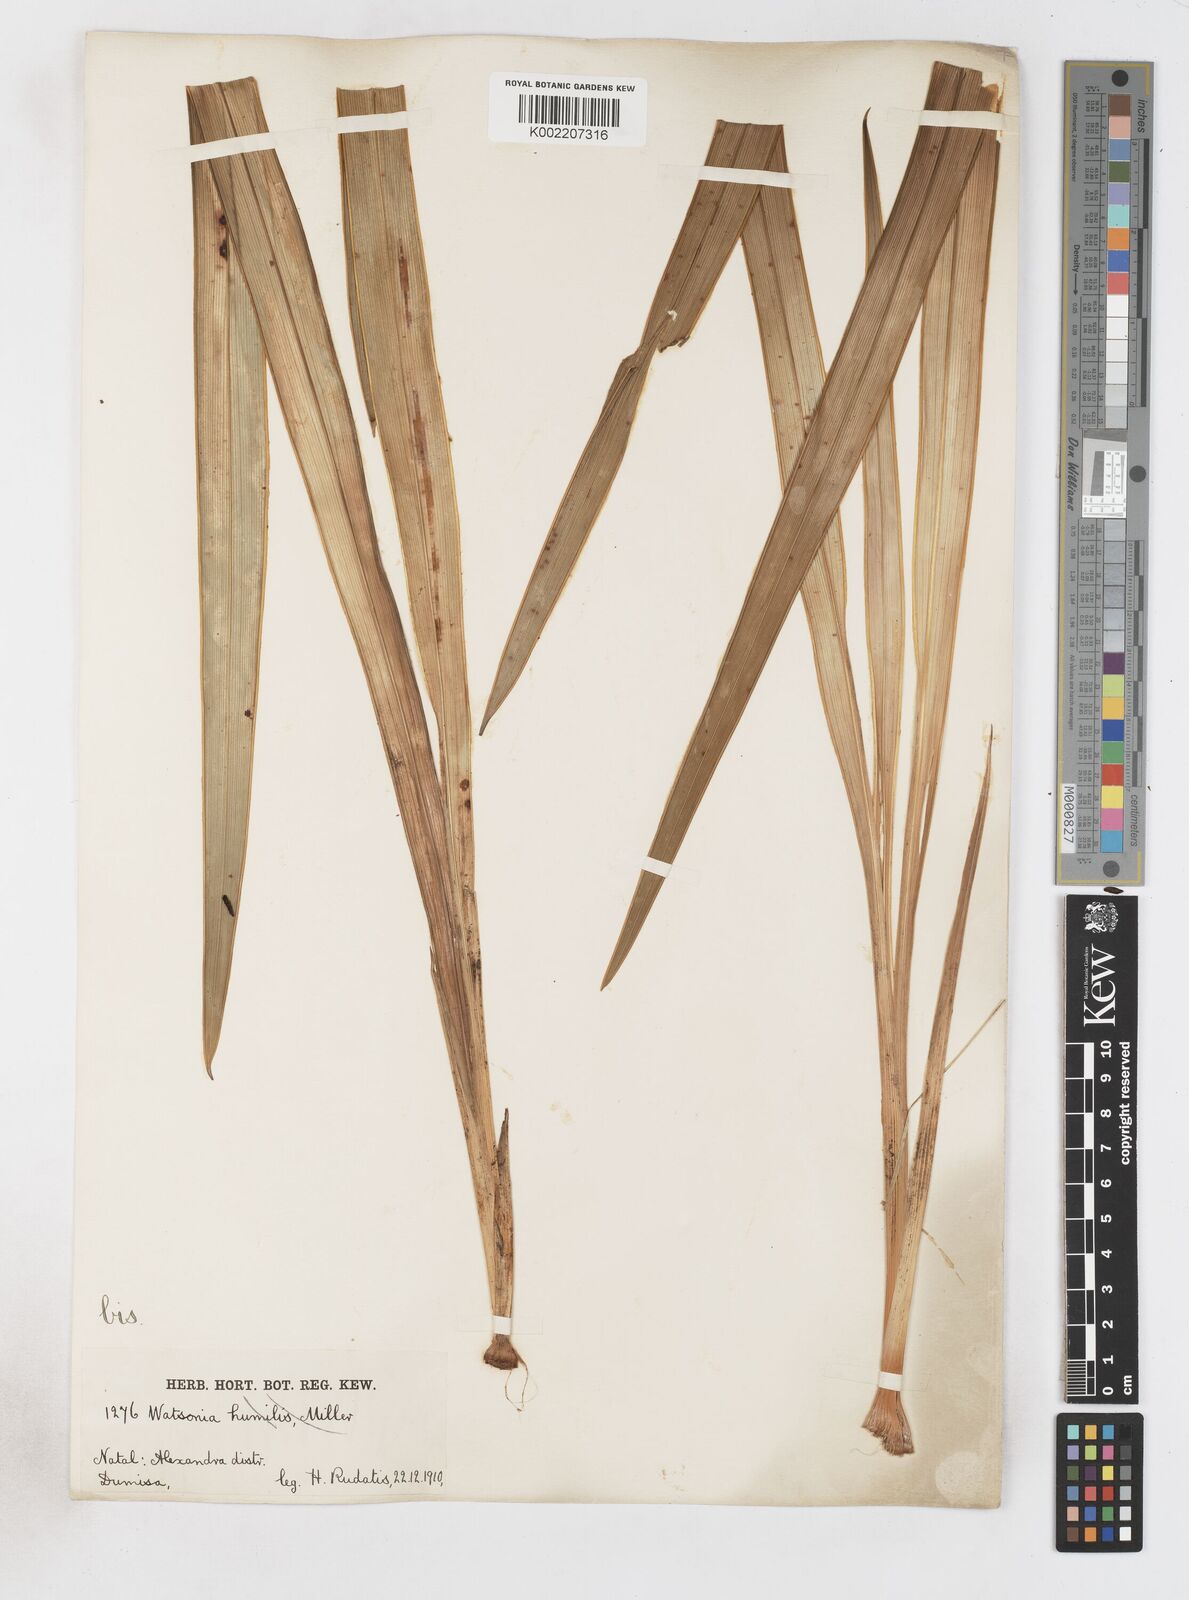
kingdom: Plantae
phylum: Tracheophyta
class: Liliopsida
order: Asparagales
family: Iridaceae
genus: Watsonia
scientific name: Watsonia densiflora
